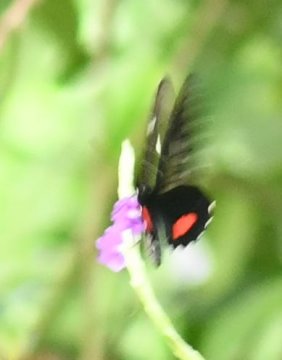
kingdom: Animalia
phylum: Arthropoda
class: Insecta
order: Lepidoptera
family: Papilionidae
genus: Parides
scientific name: Parides anchises
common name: Anchises Cattleheart
